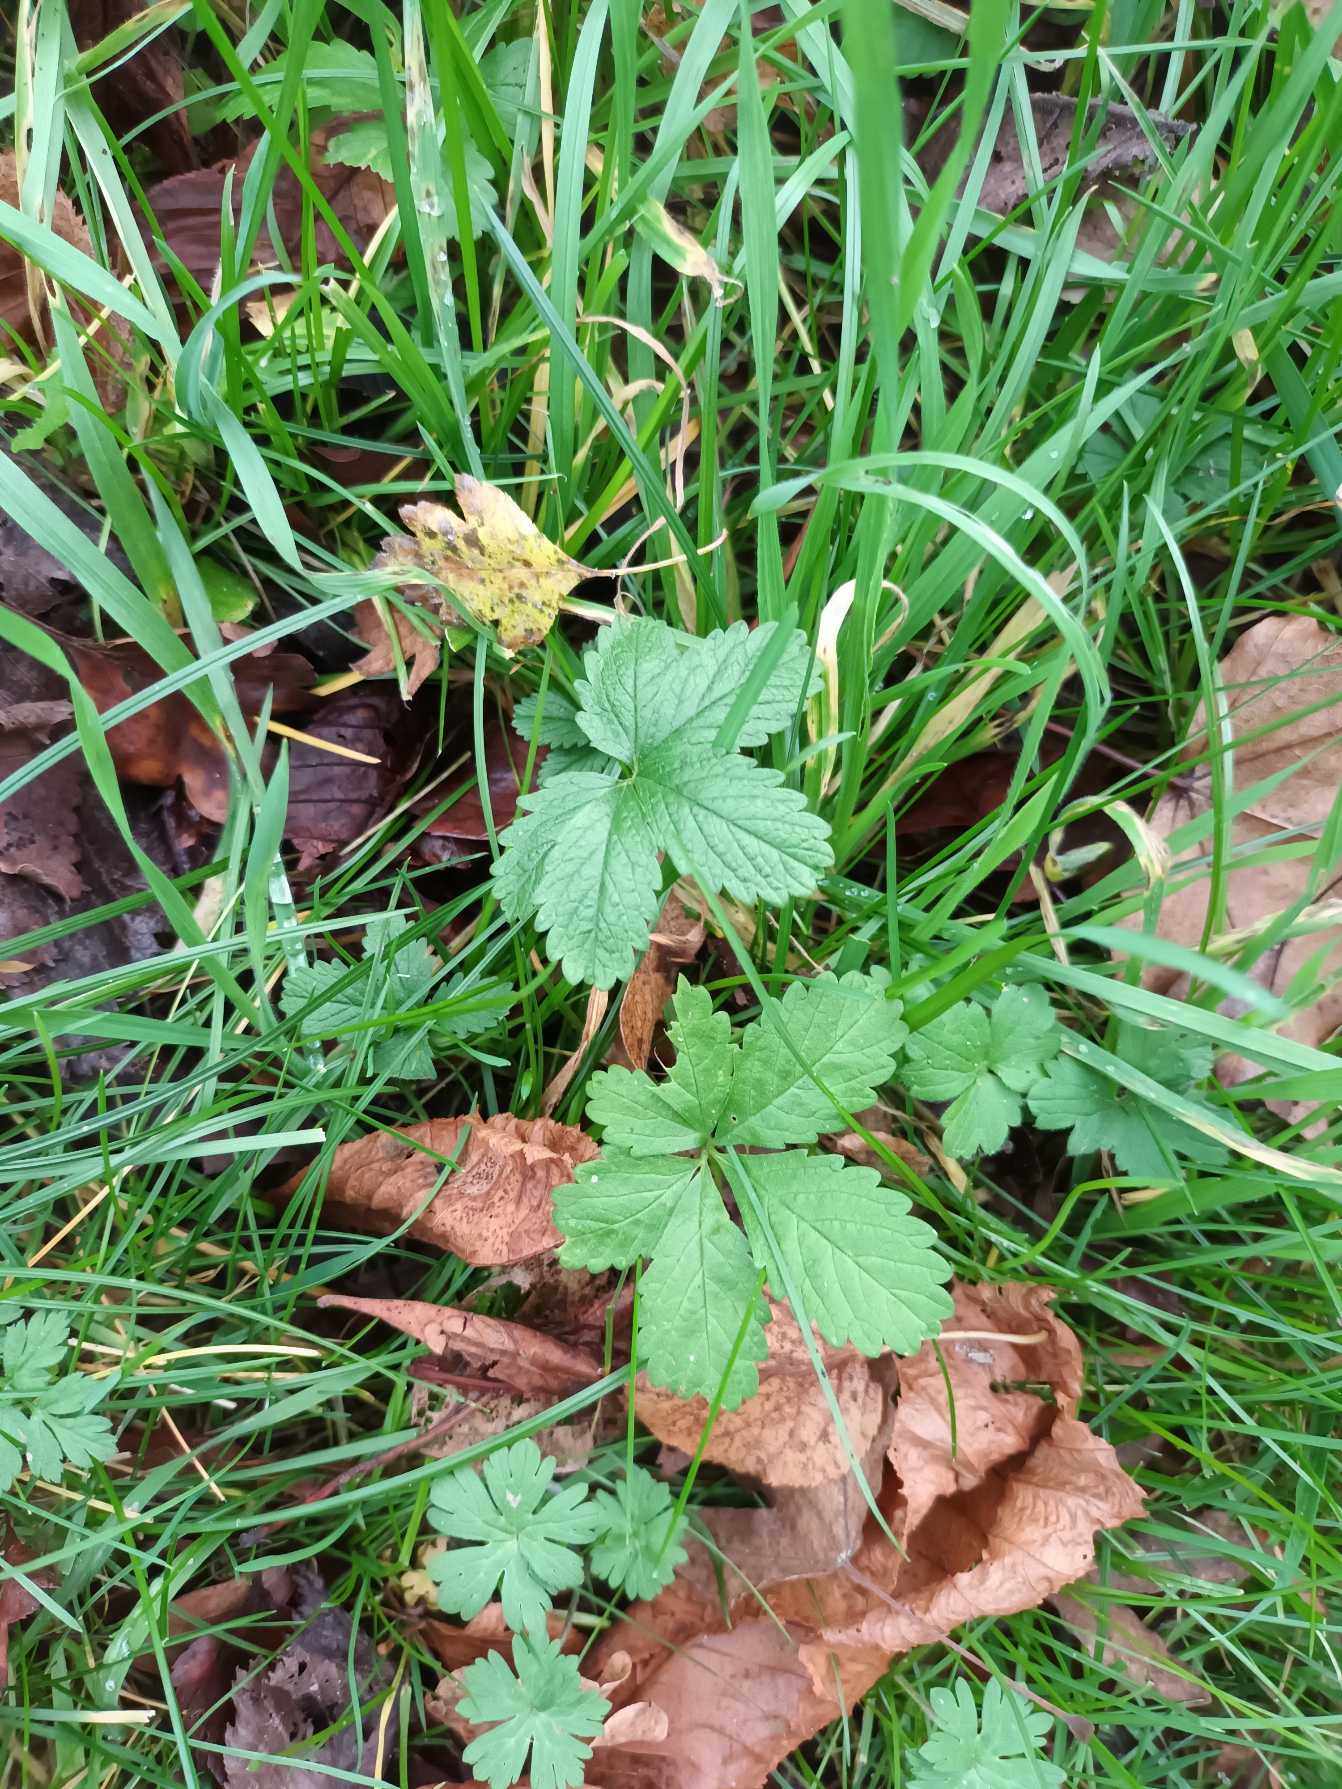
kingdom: Plantae
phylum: Tracheophyta
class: Magnoliopsida
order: Rosales
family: Rosaceae
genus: Potentilla
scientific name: Potentilla reptans
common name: Krybende potentil
